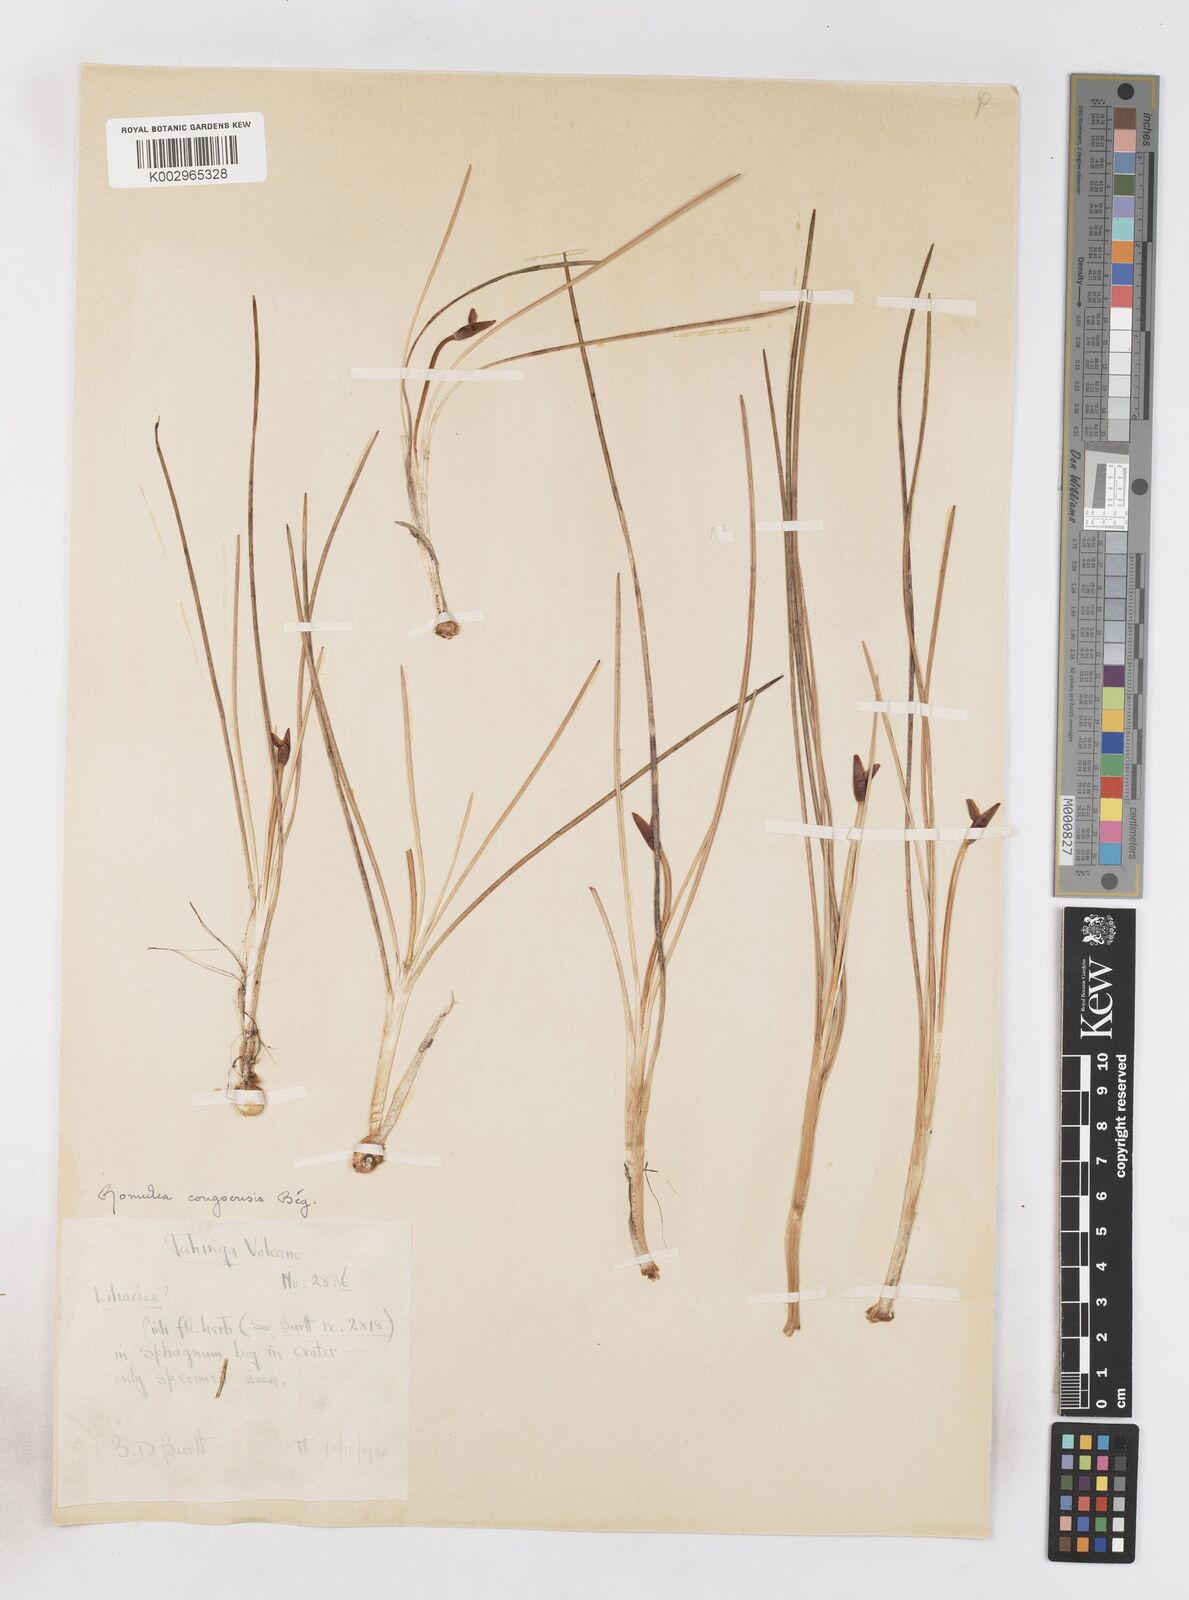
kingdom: Plantae
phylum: Tracheophyta
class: Liliopsida
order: Asparagales
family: Iridaceae
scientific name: Iridaceae
